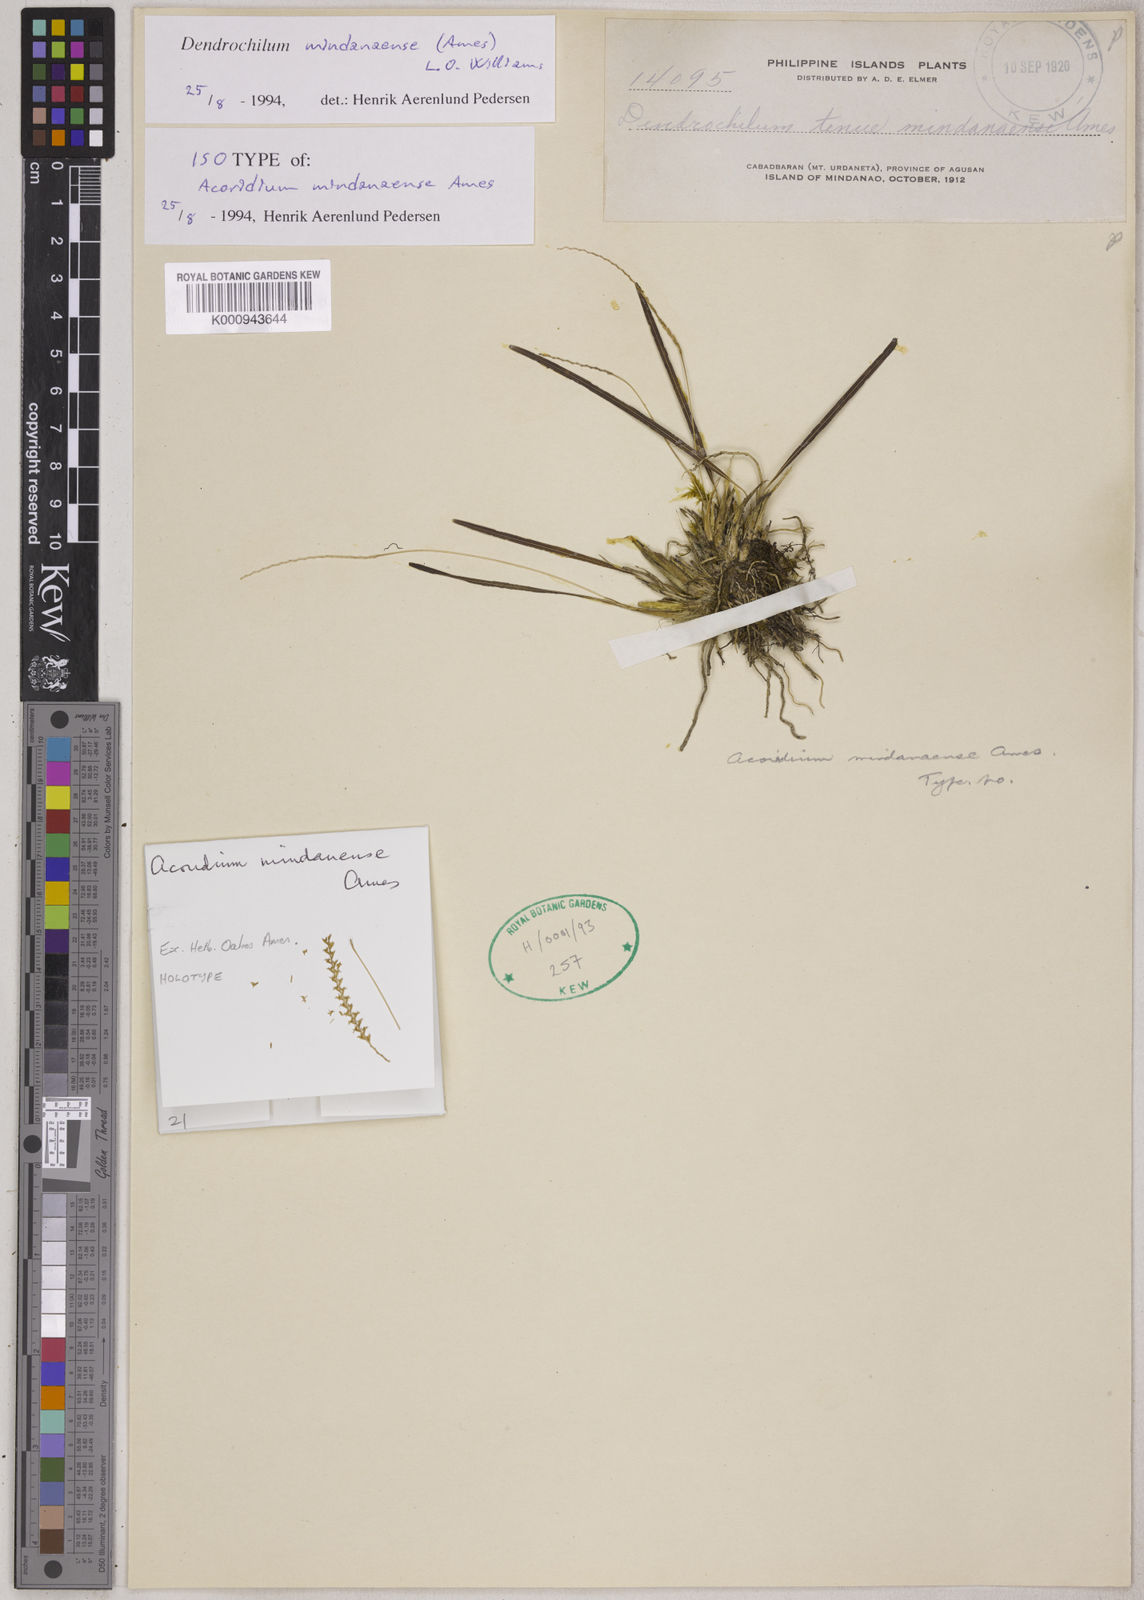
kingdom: Plantae
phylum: Tracheophyta
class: Liliopsida
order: Asparagales
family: Orchidaceae
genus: Coelogyne
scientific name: Coelogyne mindanaensis
